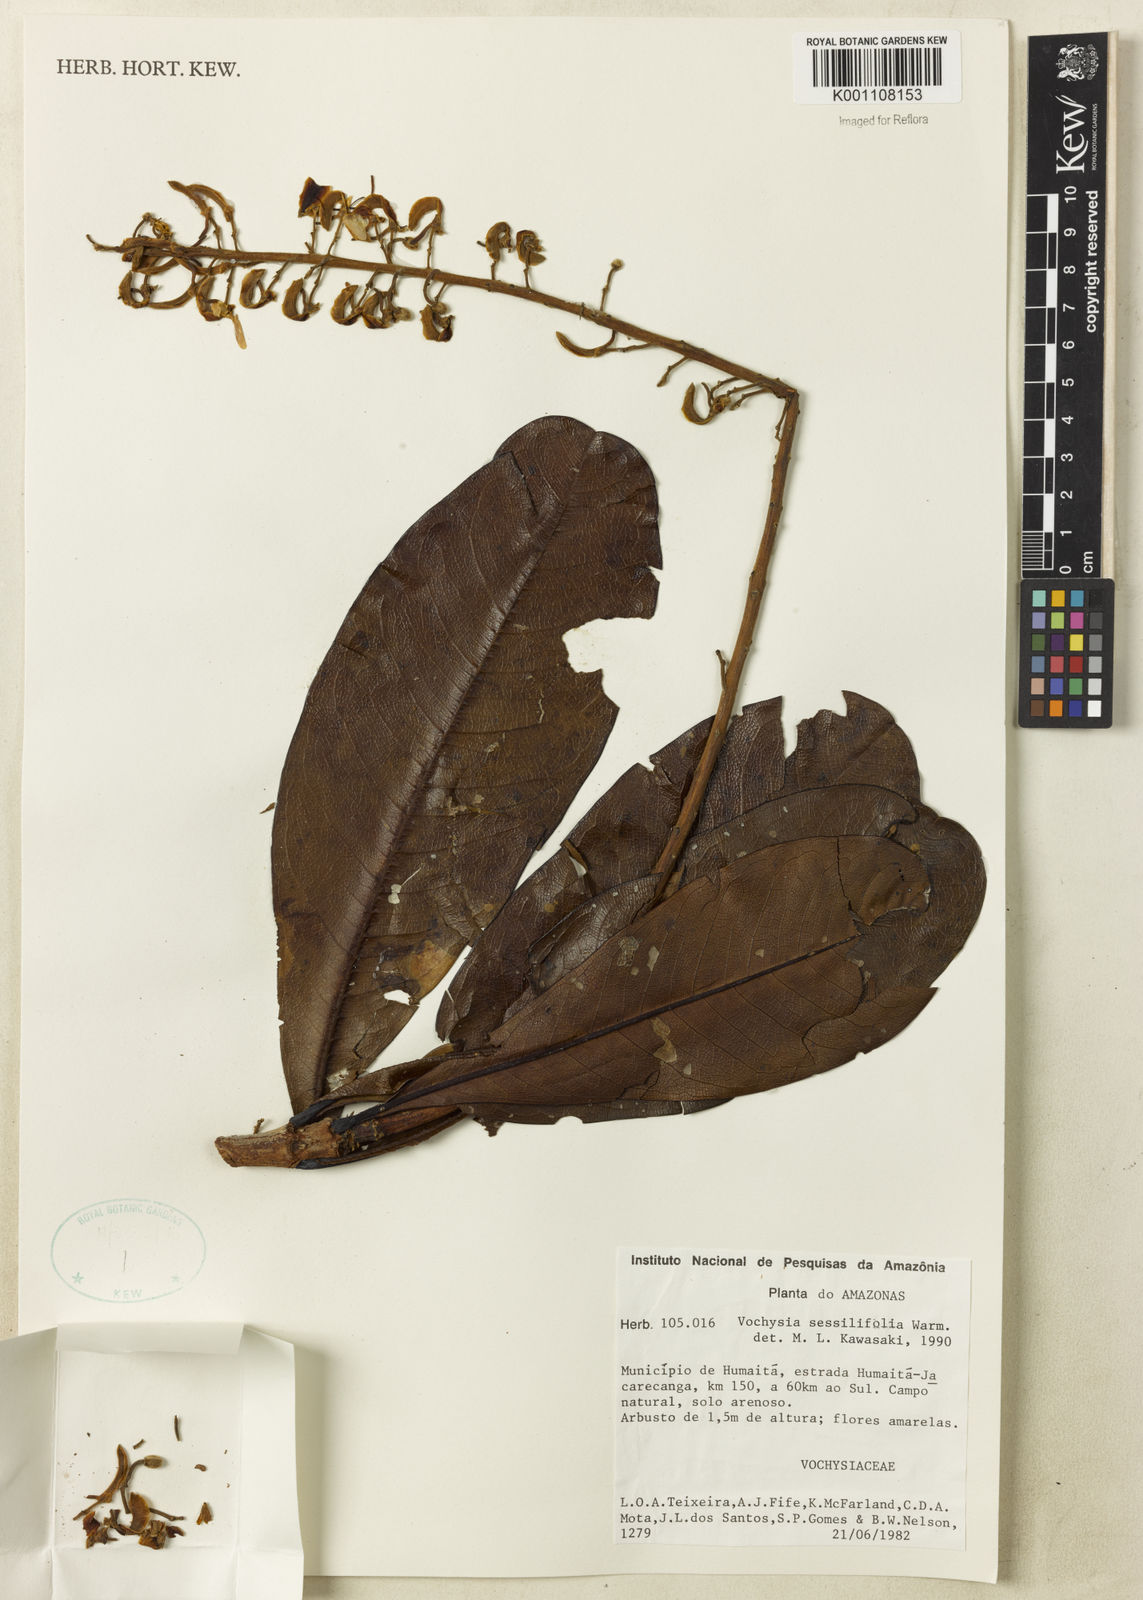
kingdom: Plantae
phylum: Tracheophyta
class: Magnoliopsida
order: Myrtales
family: Vochysiaceae
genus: Vochysia
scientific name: Vochysia sessilifolia
